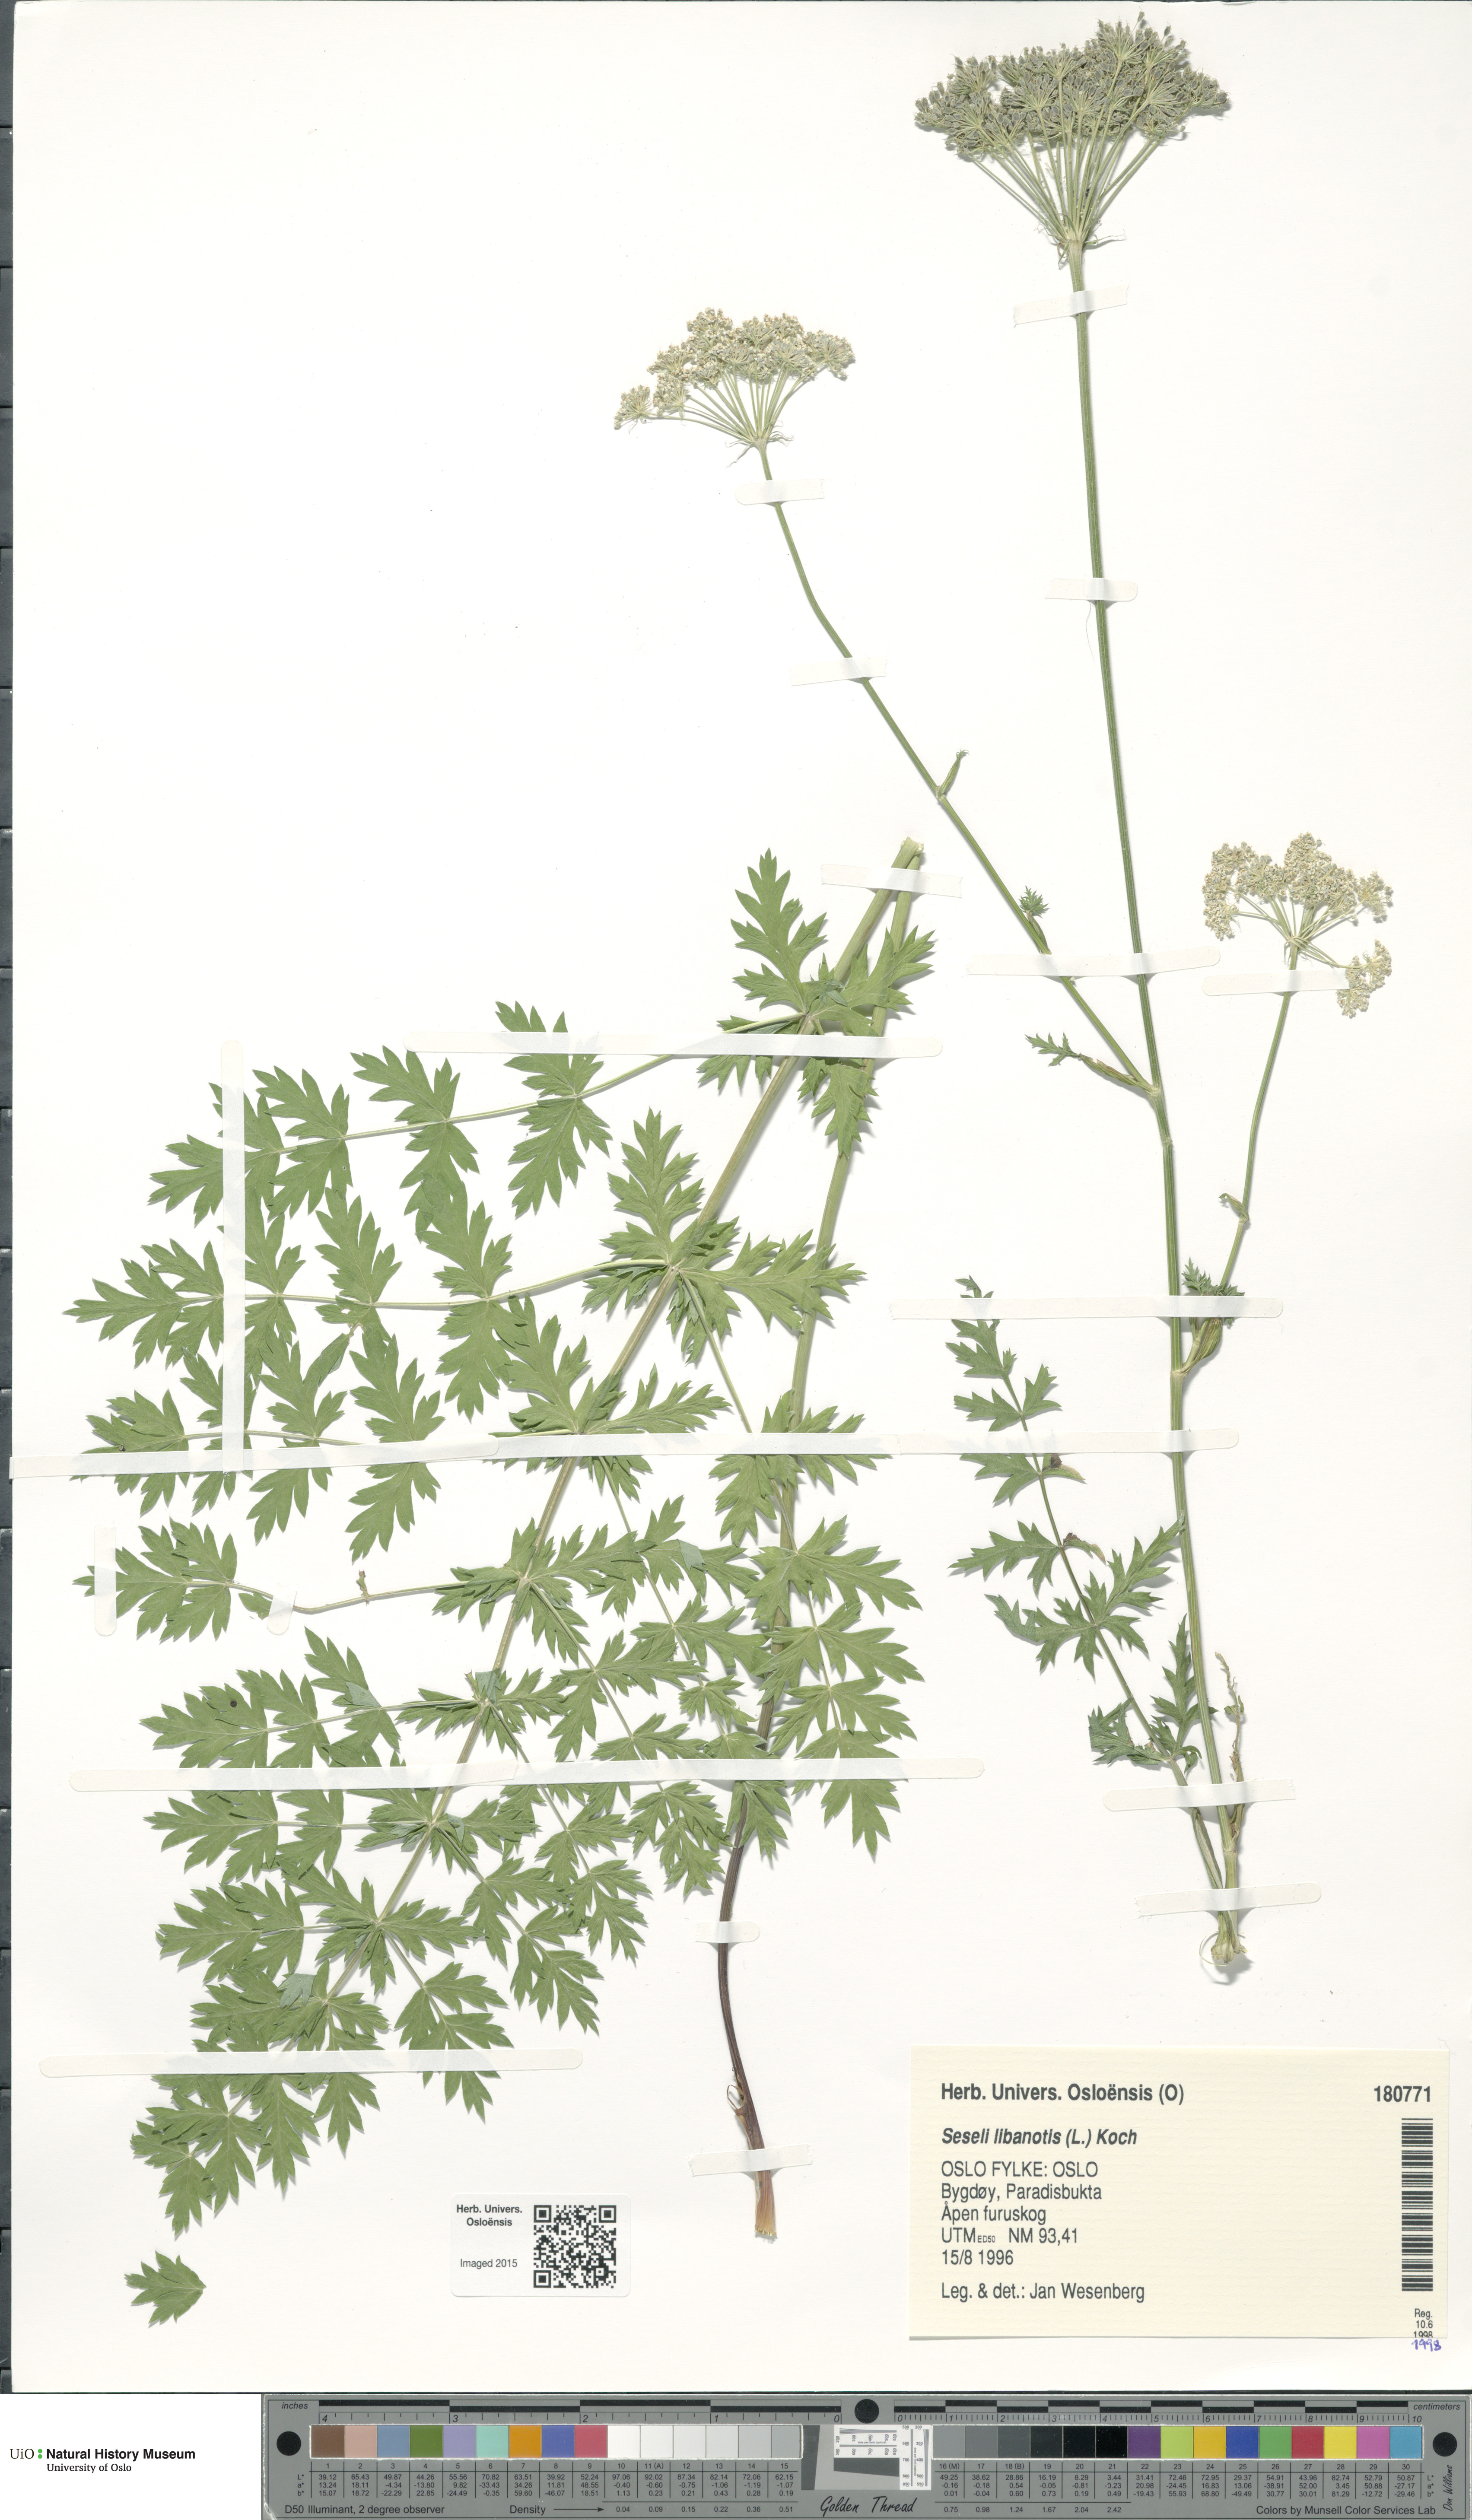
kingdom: Plantae
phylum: Tracheophyta
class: Magnoliopsida
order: Apiales
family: Apiaceae
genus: Seseli
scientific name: Seseli libanotis
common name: Mooncarrot
